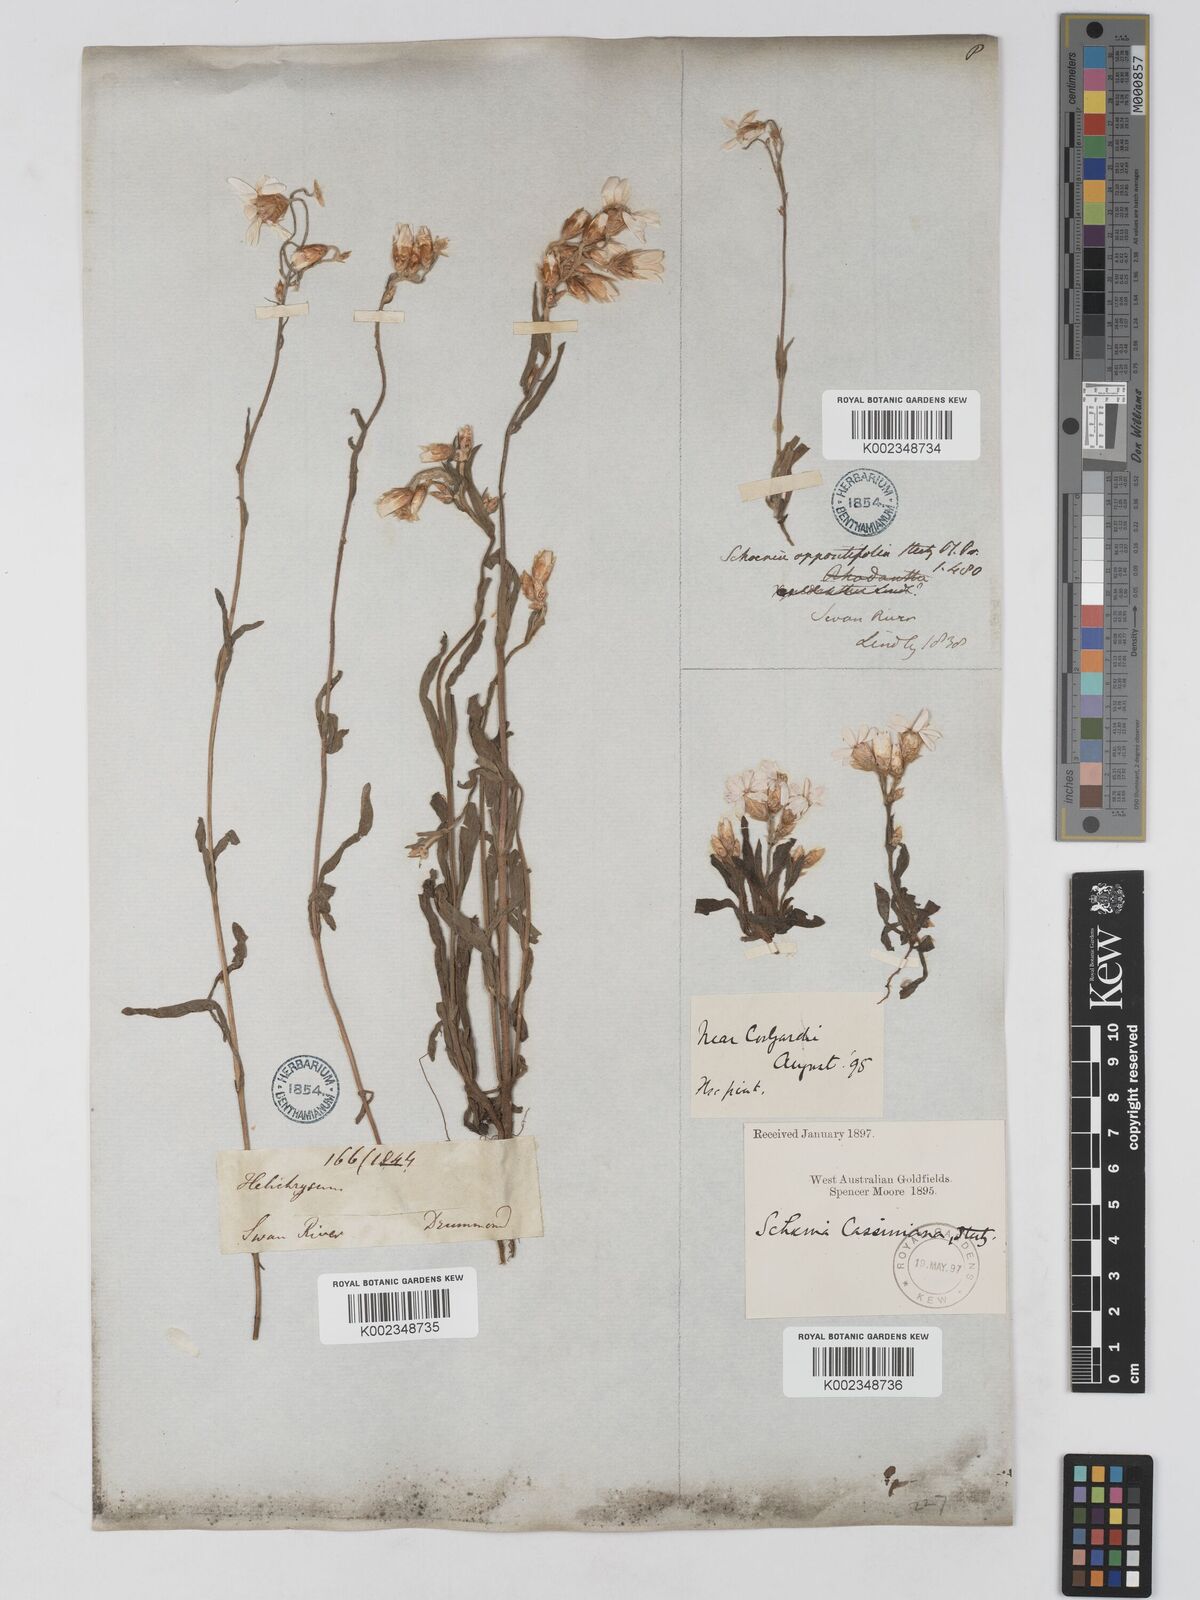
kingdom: Plantae
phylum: Tracheophyta
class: Magnoliopsida
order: Asterales
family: Asteraceae
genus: Schoenia
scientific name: Schoenia cassiniana
